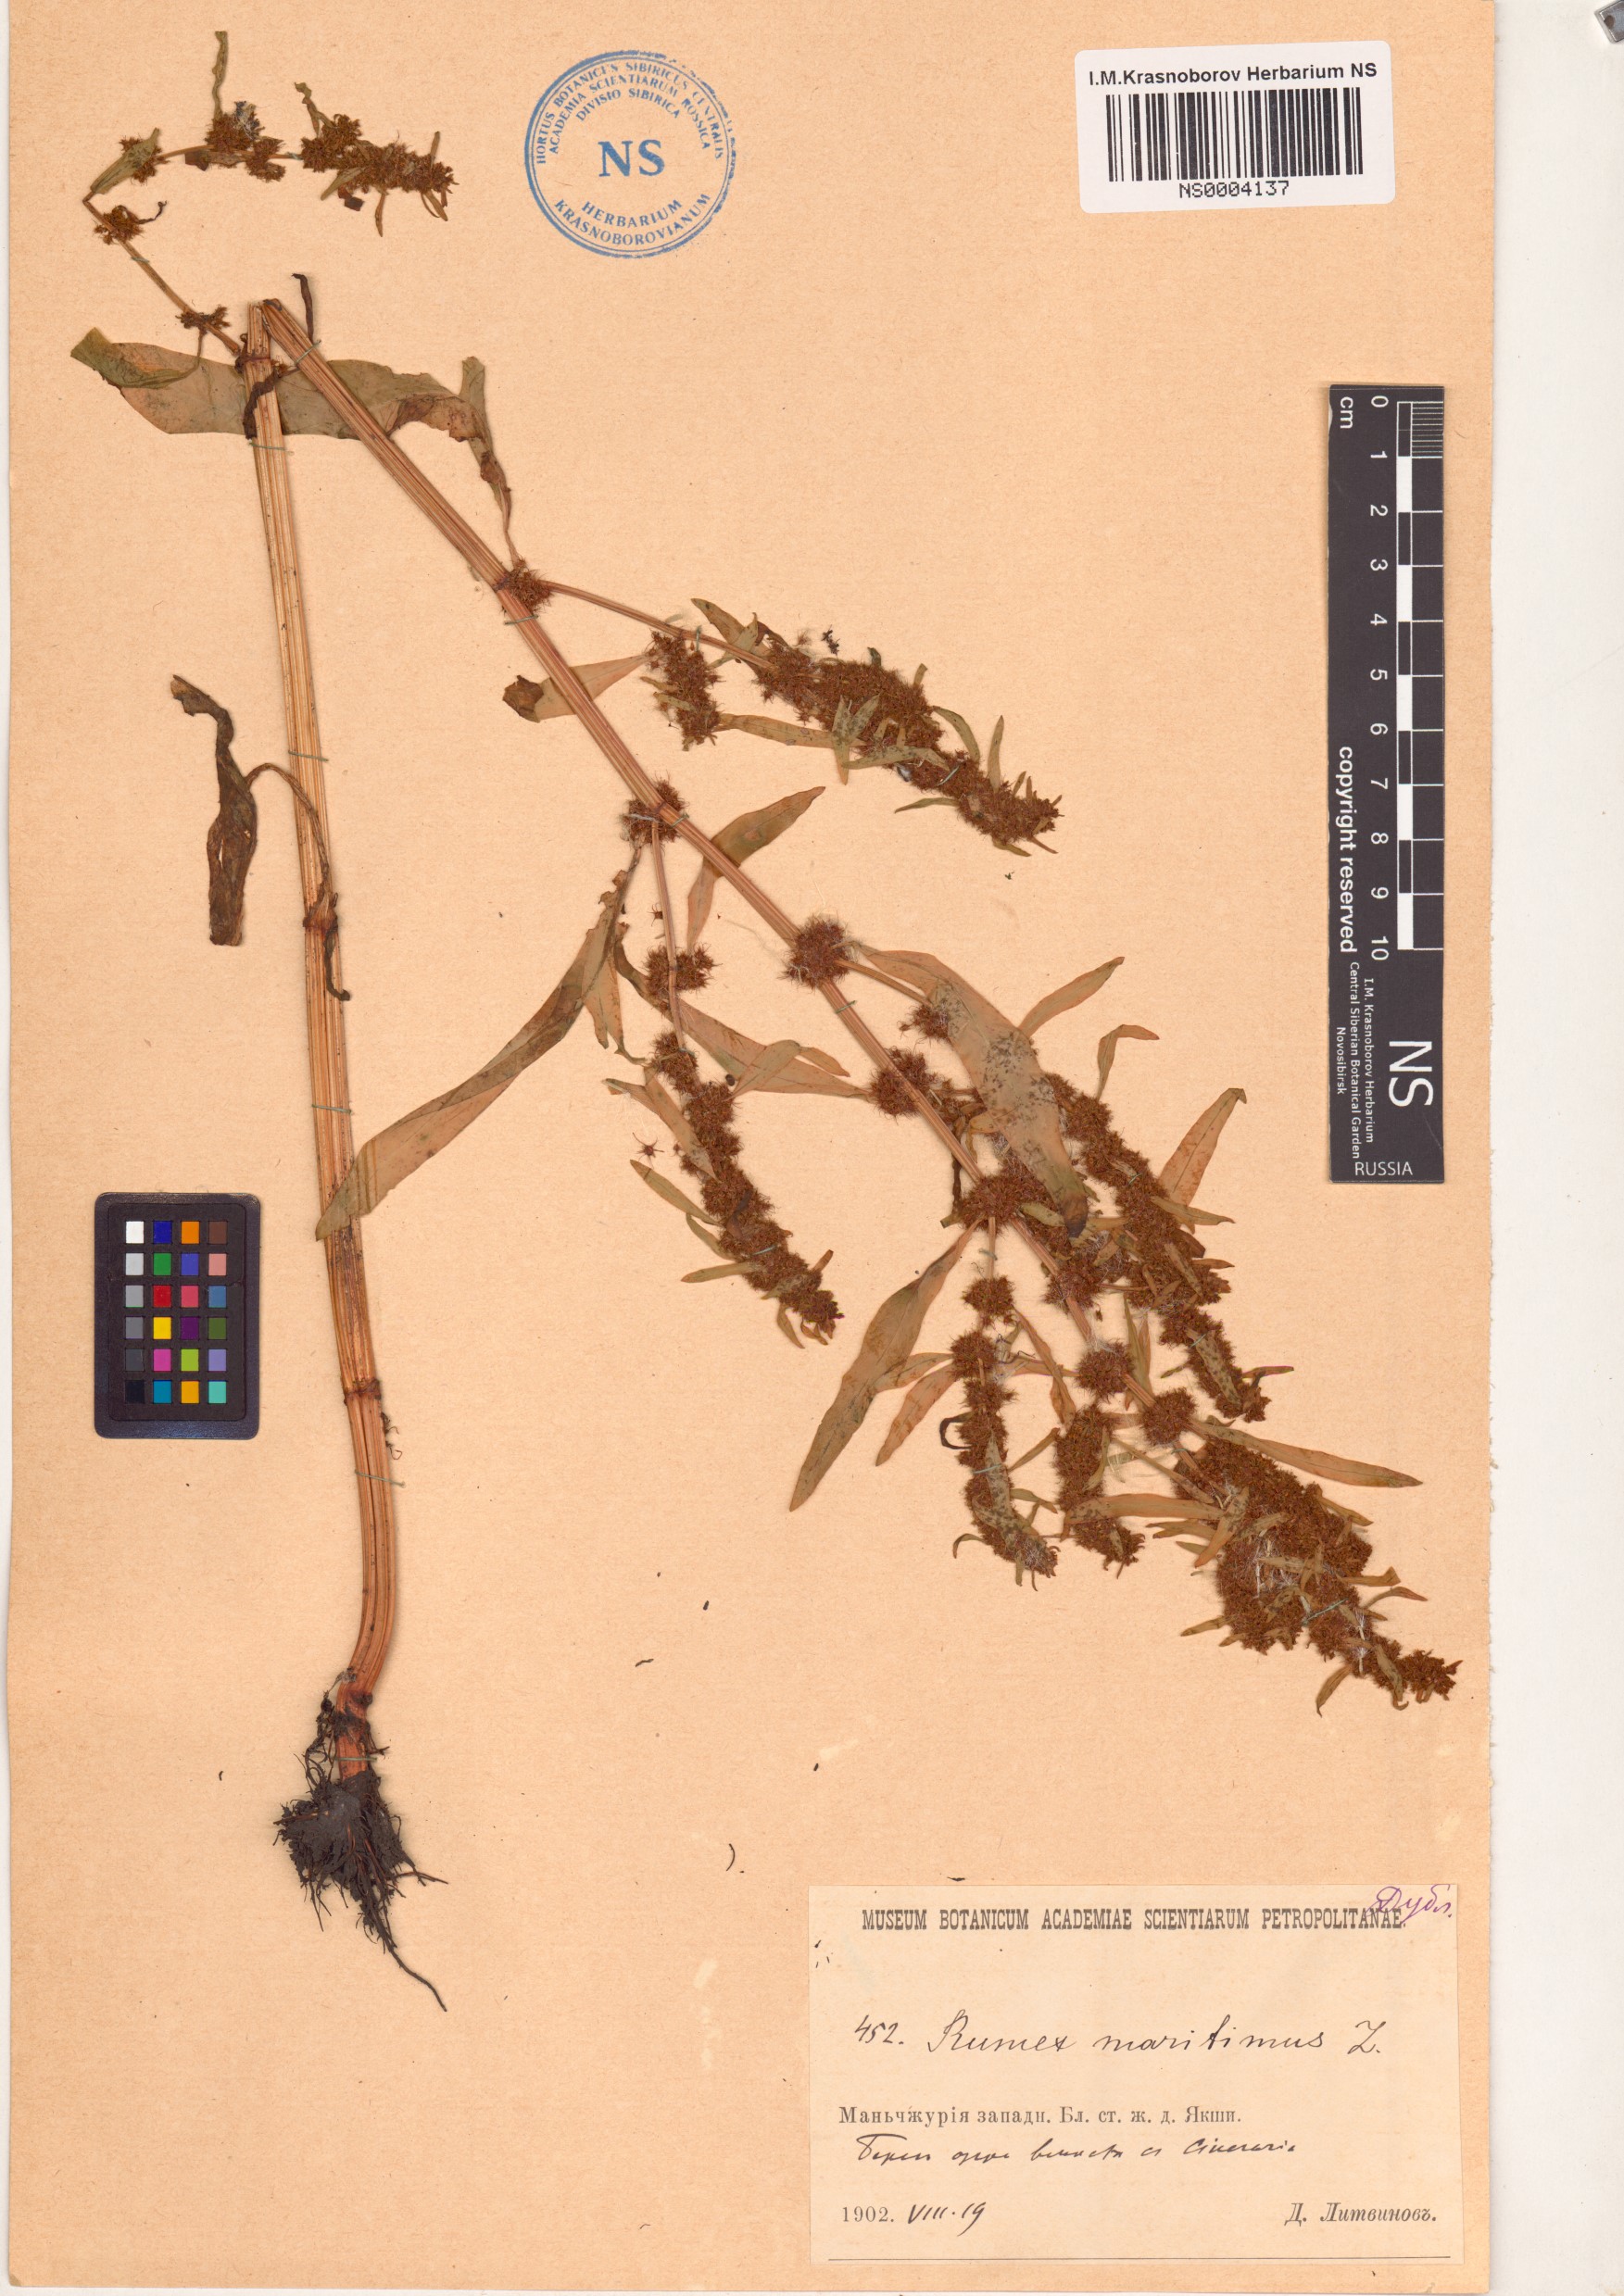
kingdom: Plantae
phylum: Tracheophyta
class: Magnoliopsida
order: Caryophyllales
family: Polygonaceae
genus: Rumex
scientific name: Rumex maritimus
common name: Golden dock
